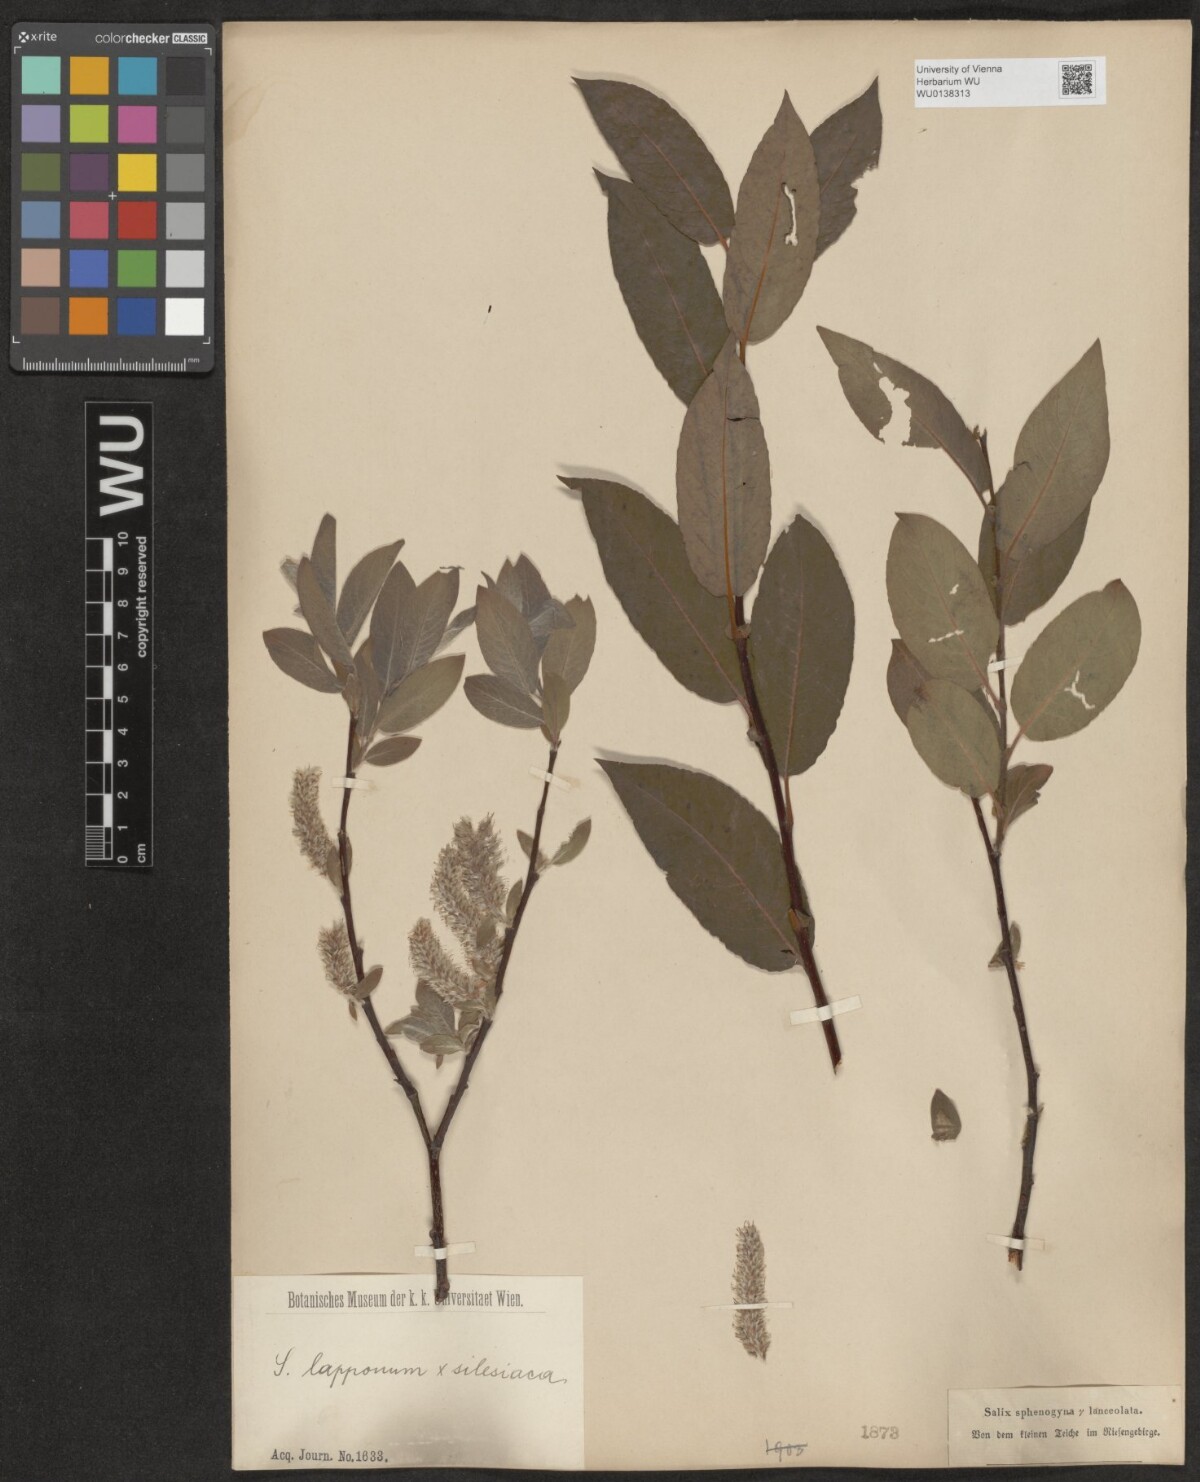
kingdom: Plantae
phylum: Tracheophyta
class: Magnoliopsida
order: Malpighiales
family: Salicaceae
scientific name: Salicaceae
